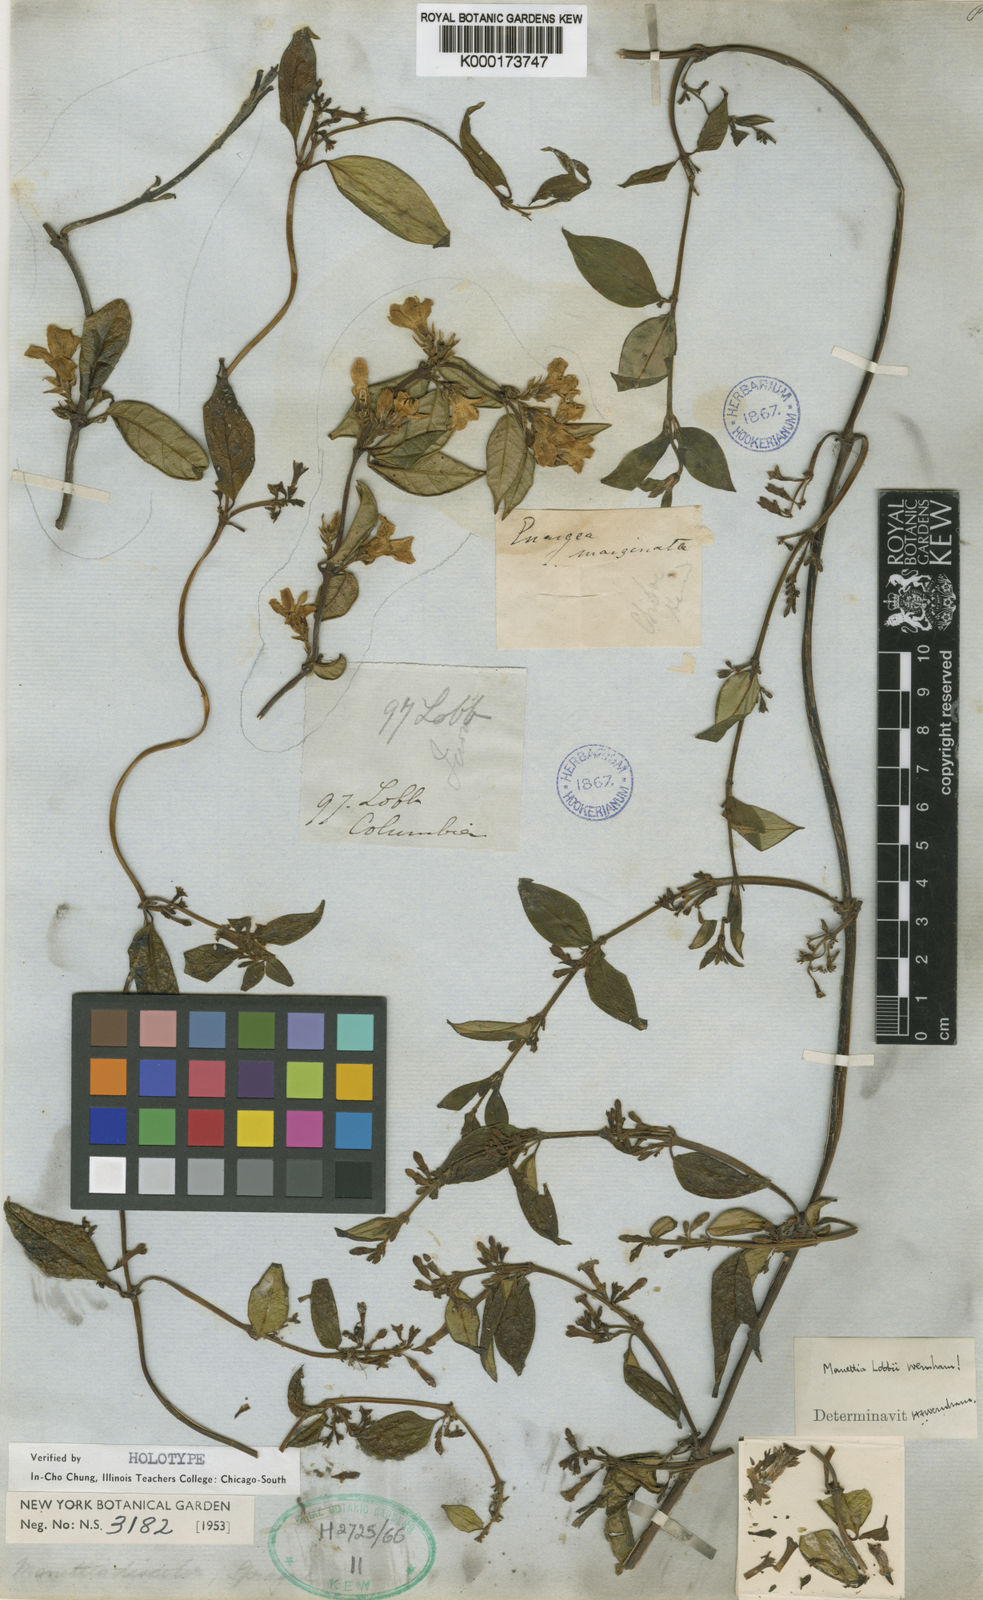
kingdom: Plantae
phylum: Tracheophyta
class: Magnoliopsida
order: Gentianales
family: Rubiaceae
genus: Manettia
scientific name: Manettia lobbii
